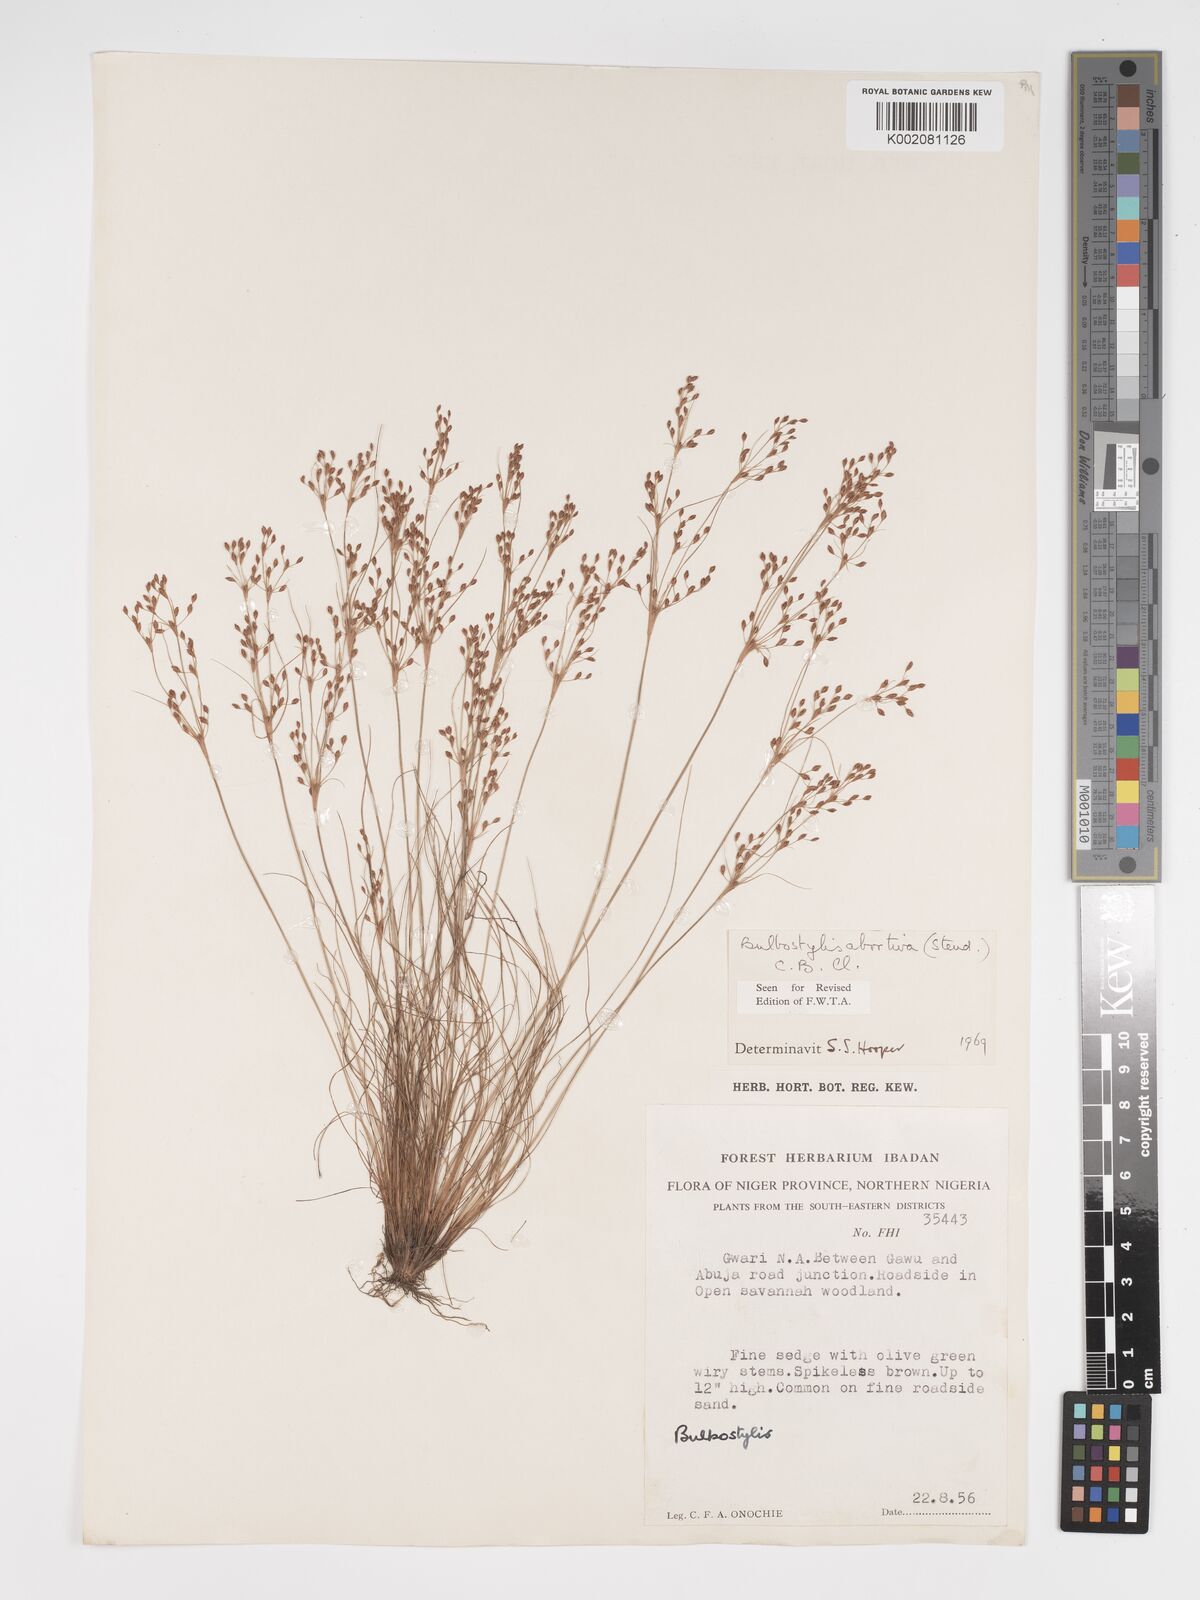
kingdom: Plantae
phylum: Tracheophyta
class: Liliopsida
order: Poales
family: Cyperaceae
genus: Bulbostylis
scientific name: Bulbostylis abortiva
